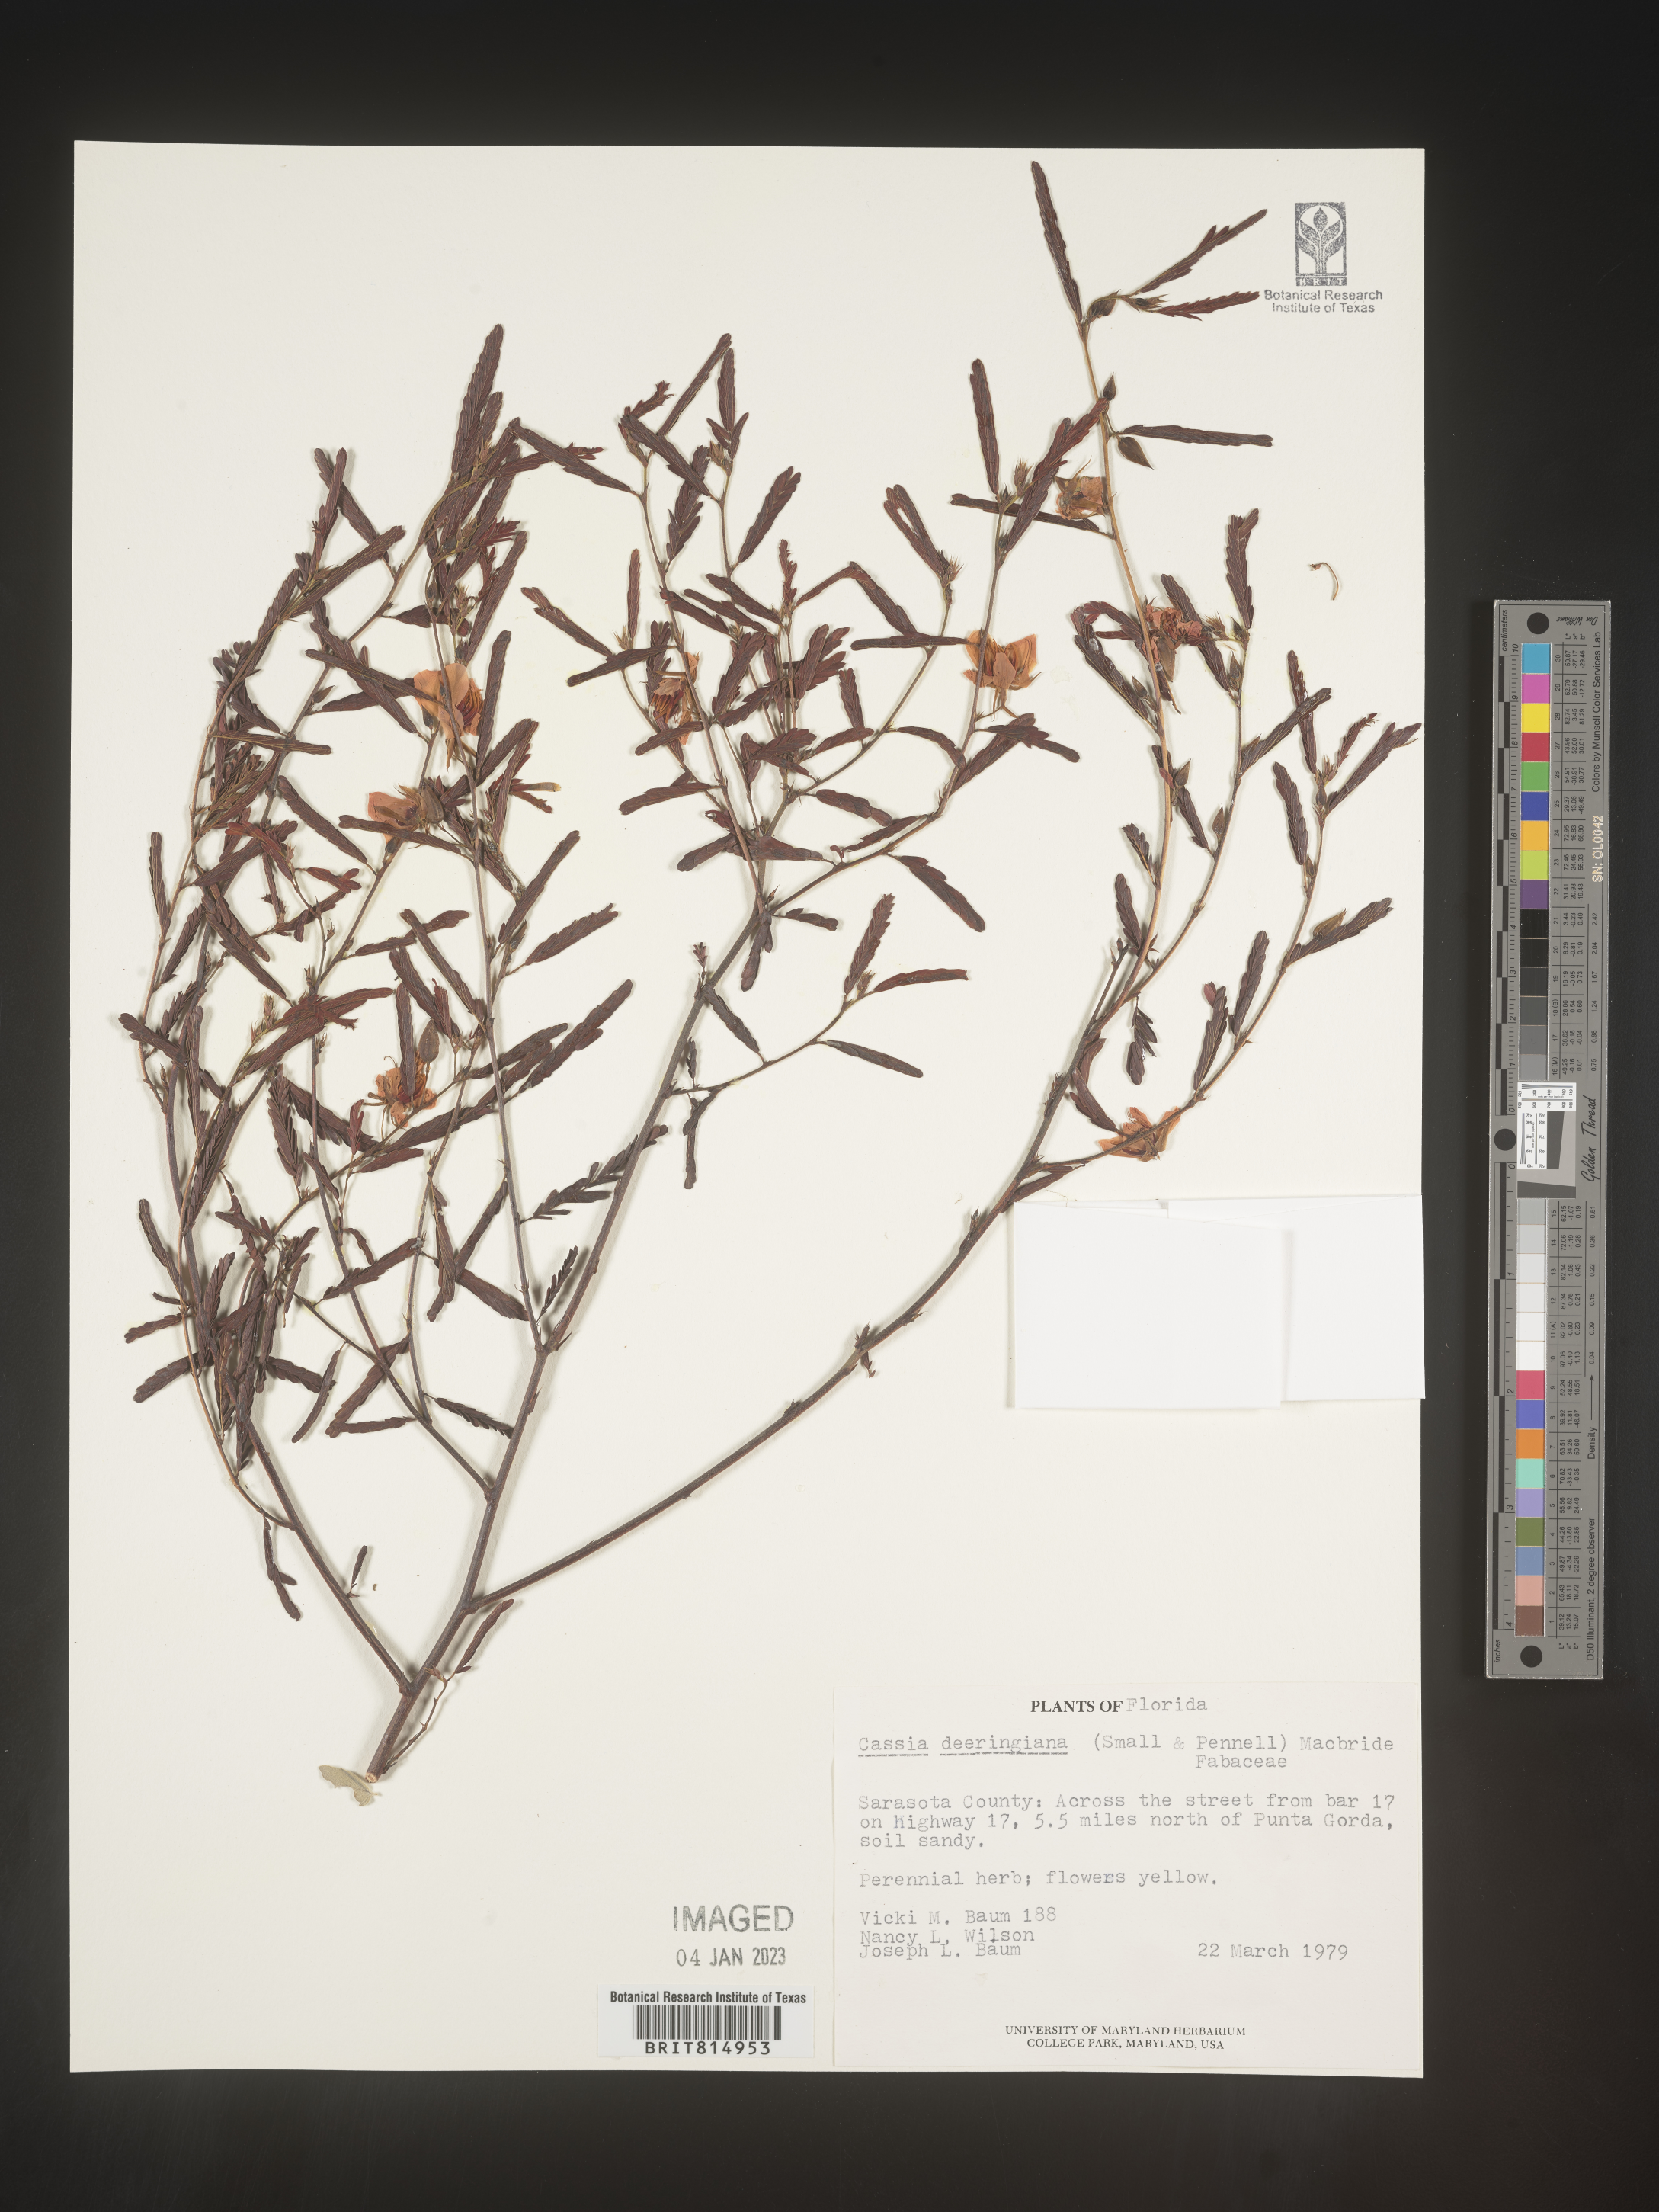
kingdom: Plantae
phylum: Tracheophyta
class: Magnoliopsida
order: Fabales
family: Fabaceae
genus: Cassia
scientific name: Cassia
